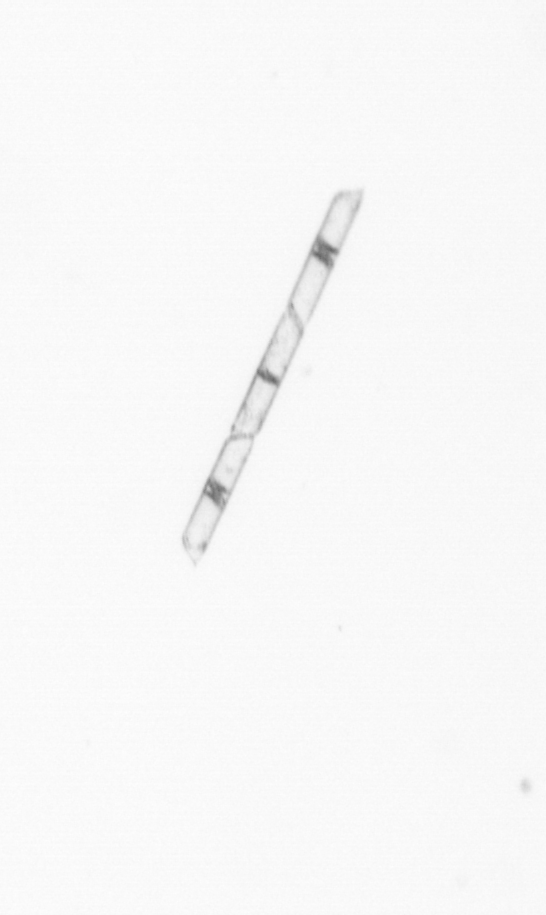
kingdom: Chromista
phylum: Ochrophyta
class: Bacillariophyceae
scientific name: Bacillariophyceae
